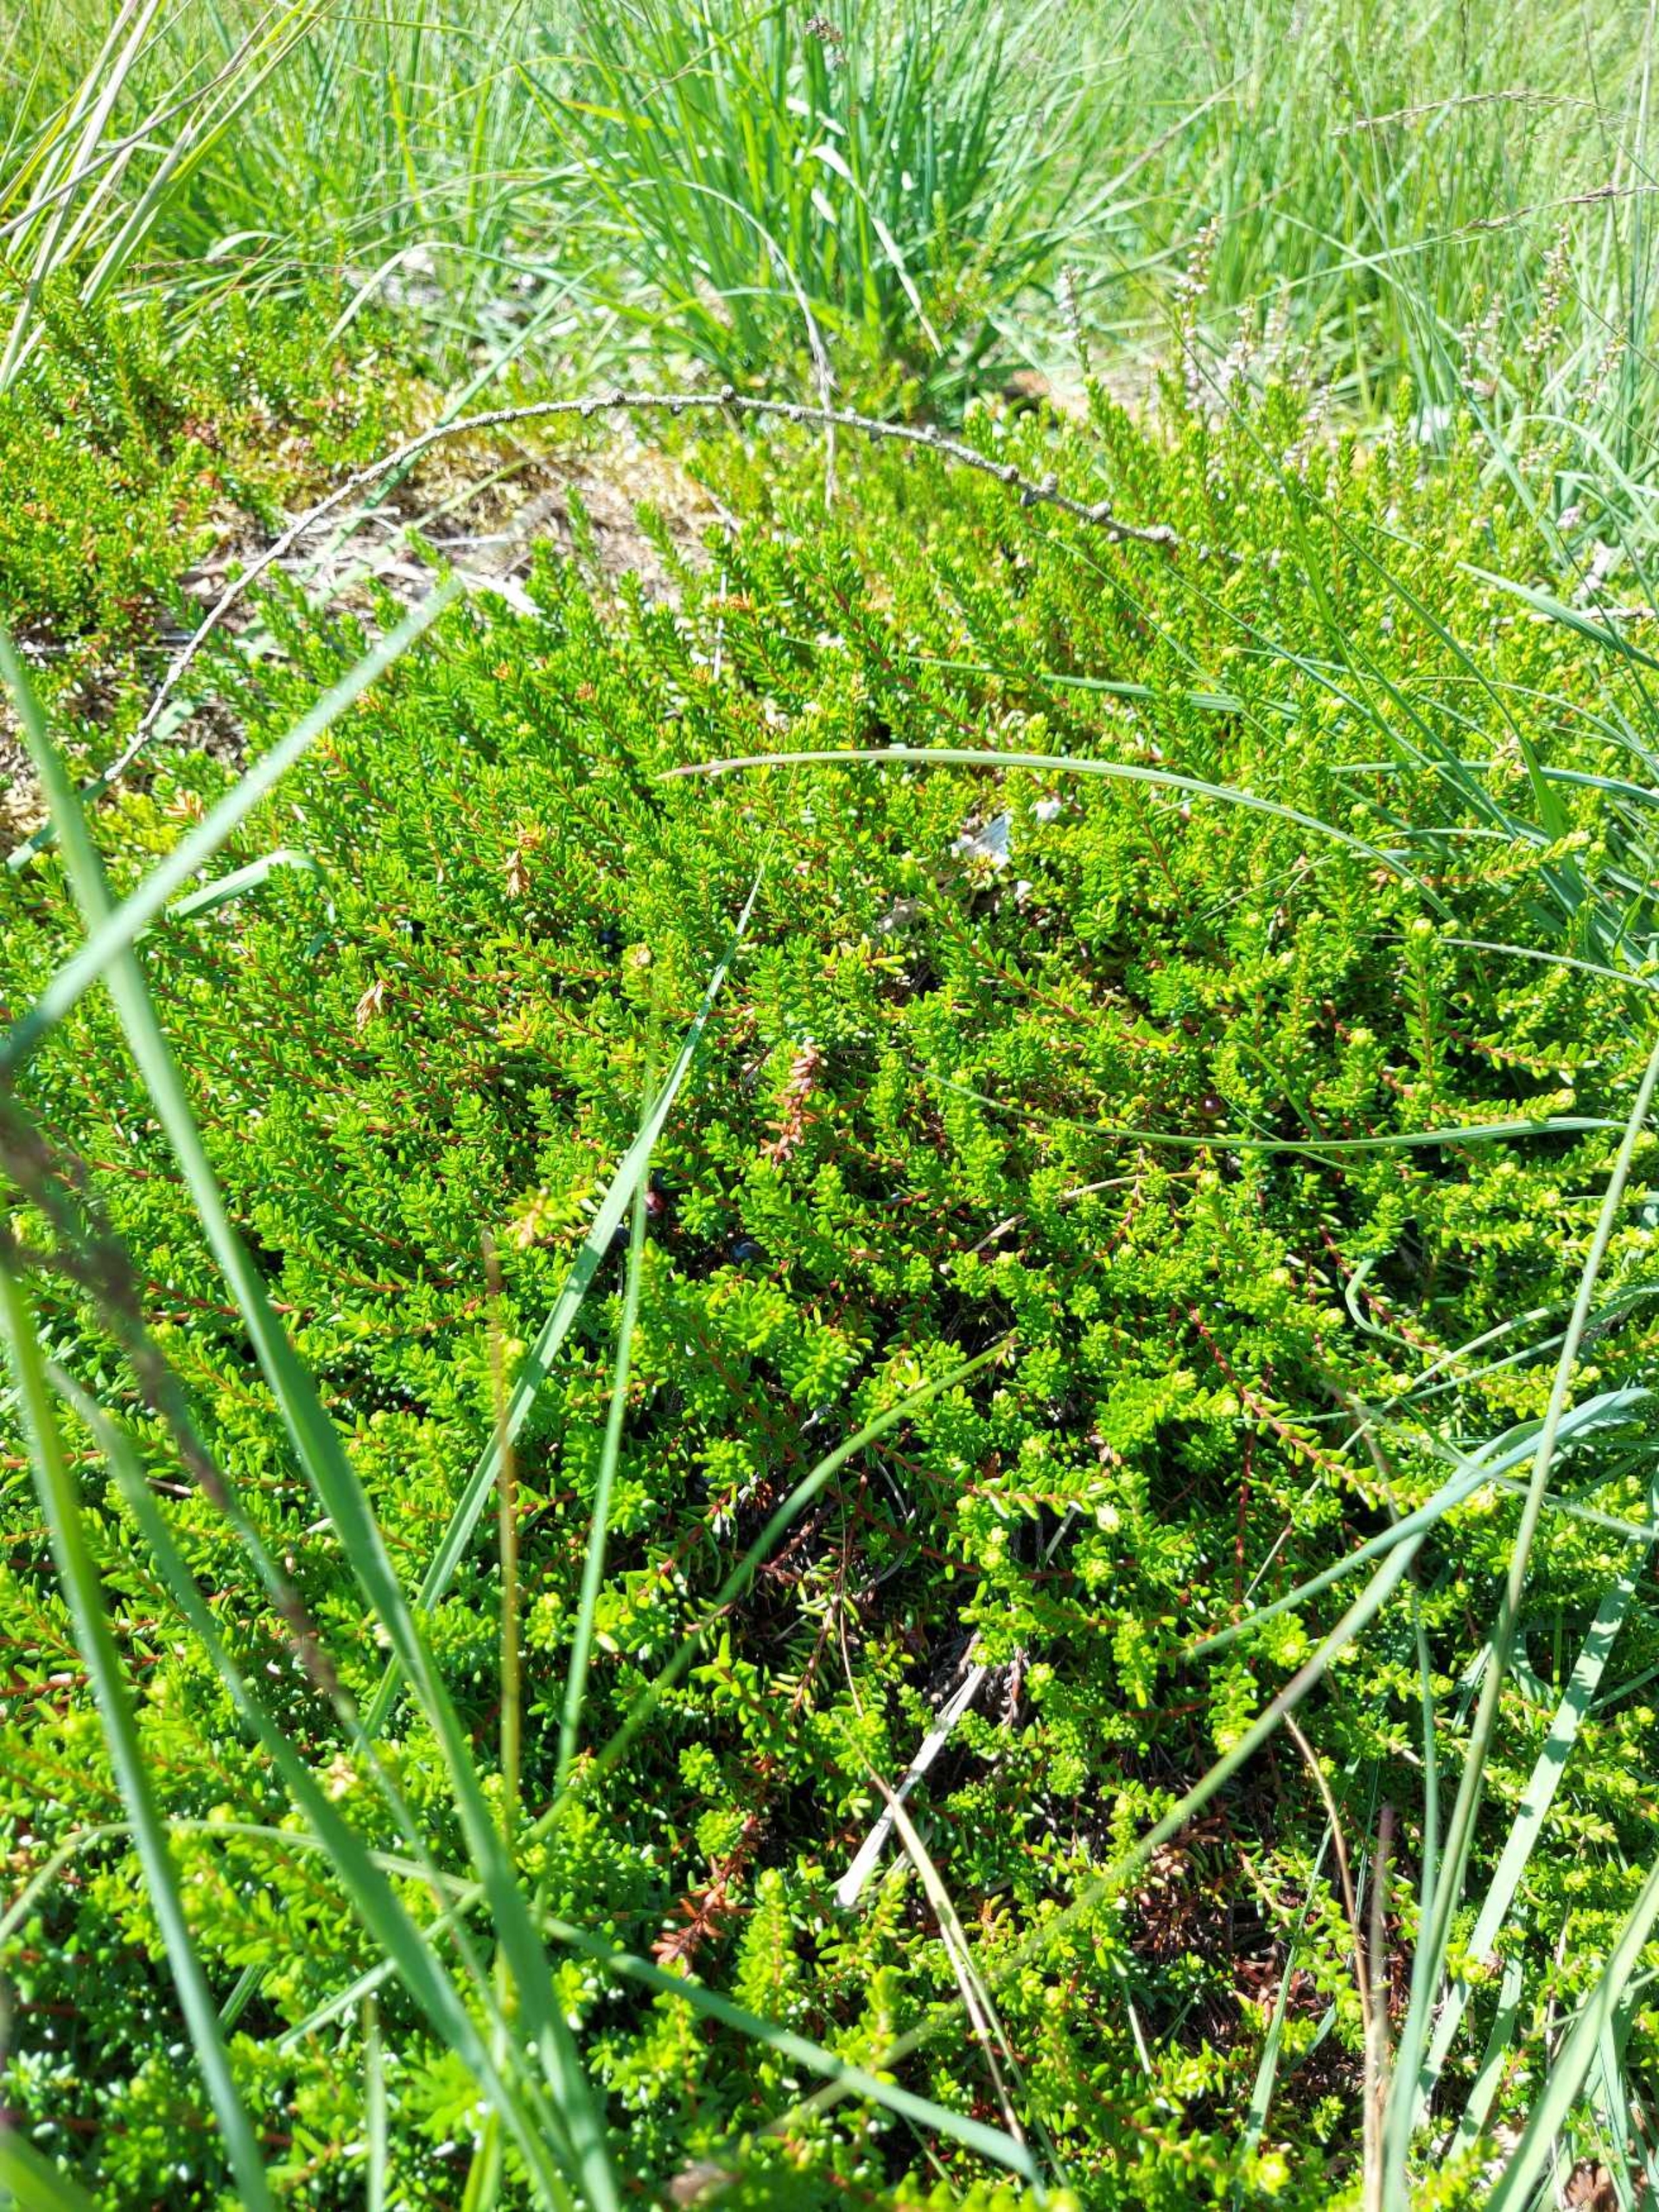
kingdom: Plantae
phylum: Tracheophyta
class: Magnoliopsida
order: Ericales
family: Ericaceae
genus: Empetrum
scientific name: Empetrum nigrum
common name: Revling
